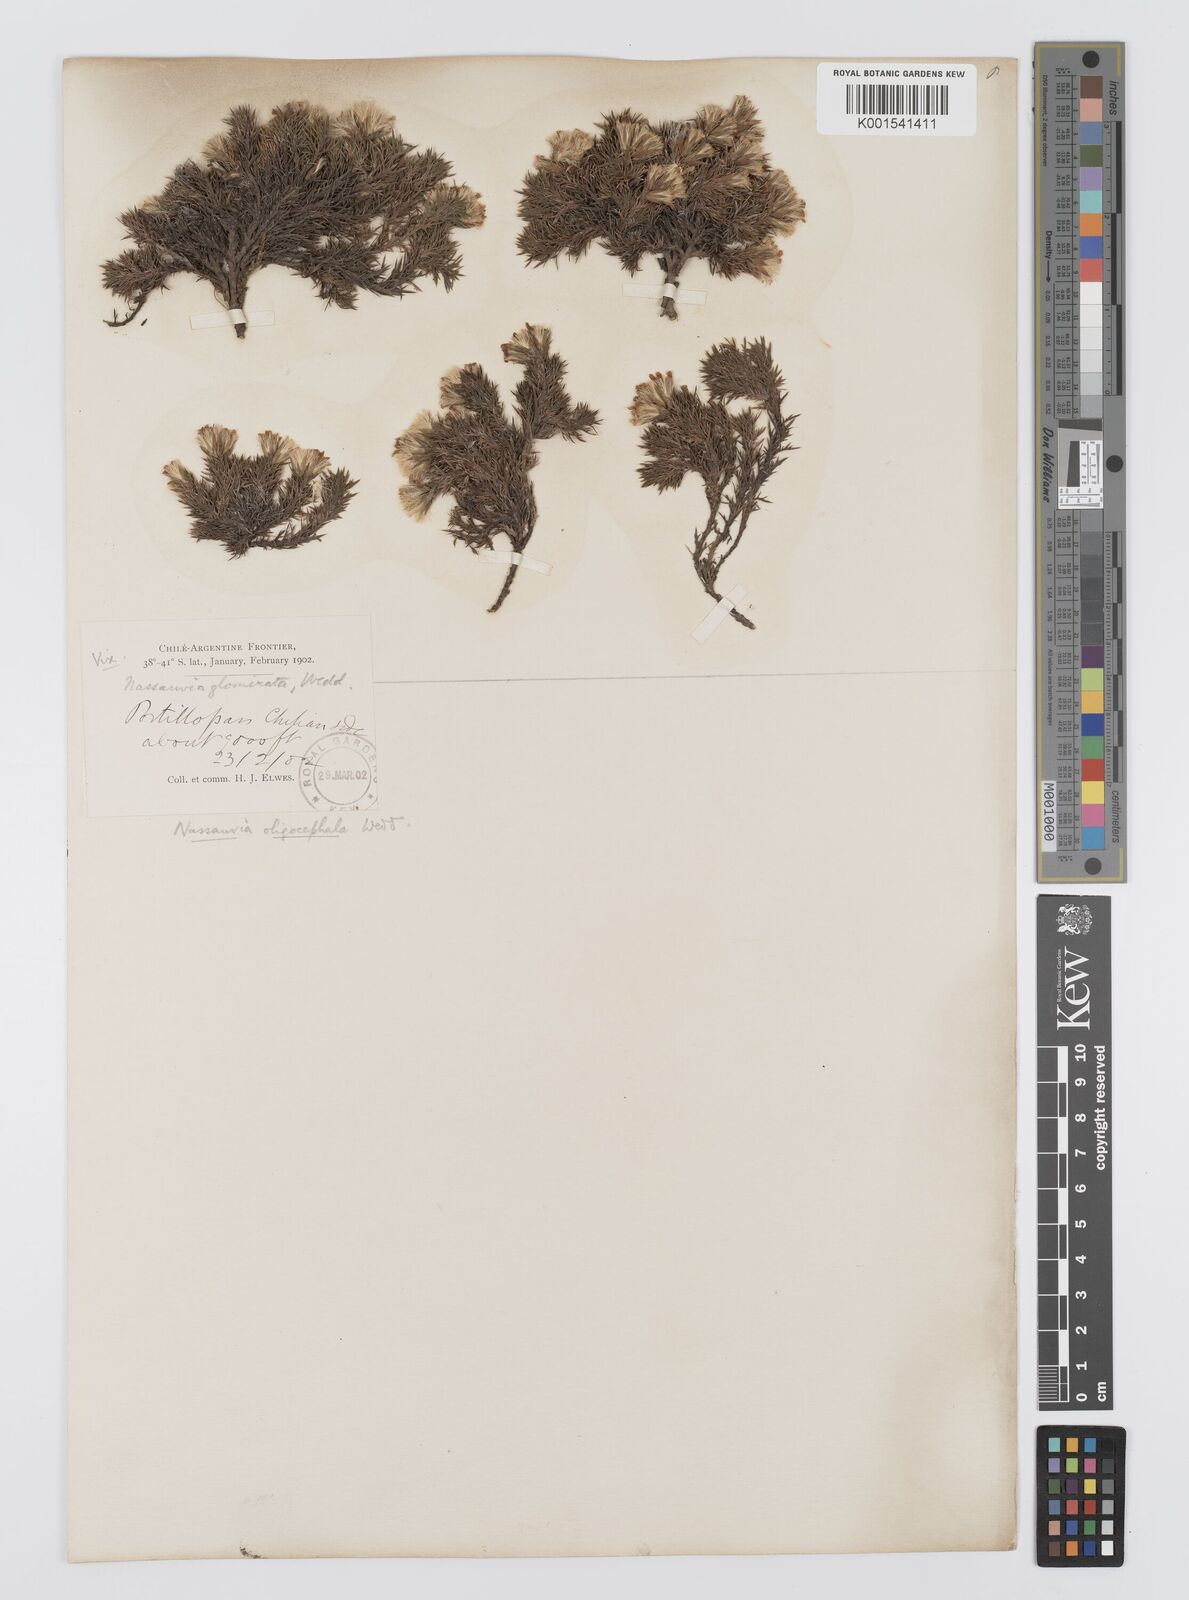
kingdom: Plantae
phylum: Tracheophyta
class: Magnoliopsida
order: Asterales
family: Asteraceae
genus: Nassauvia
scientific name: Nassauvia uniflora
